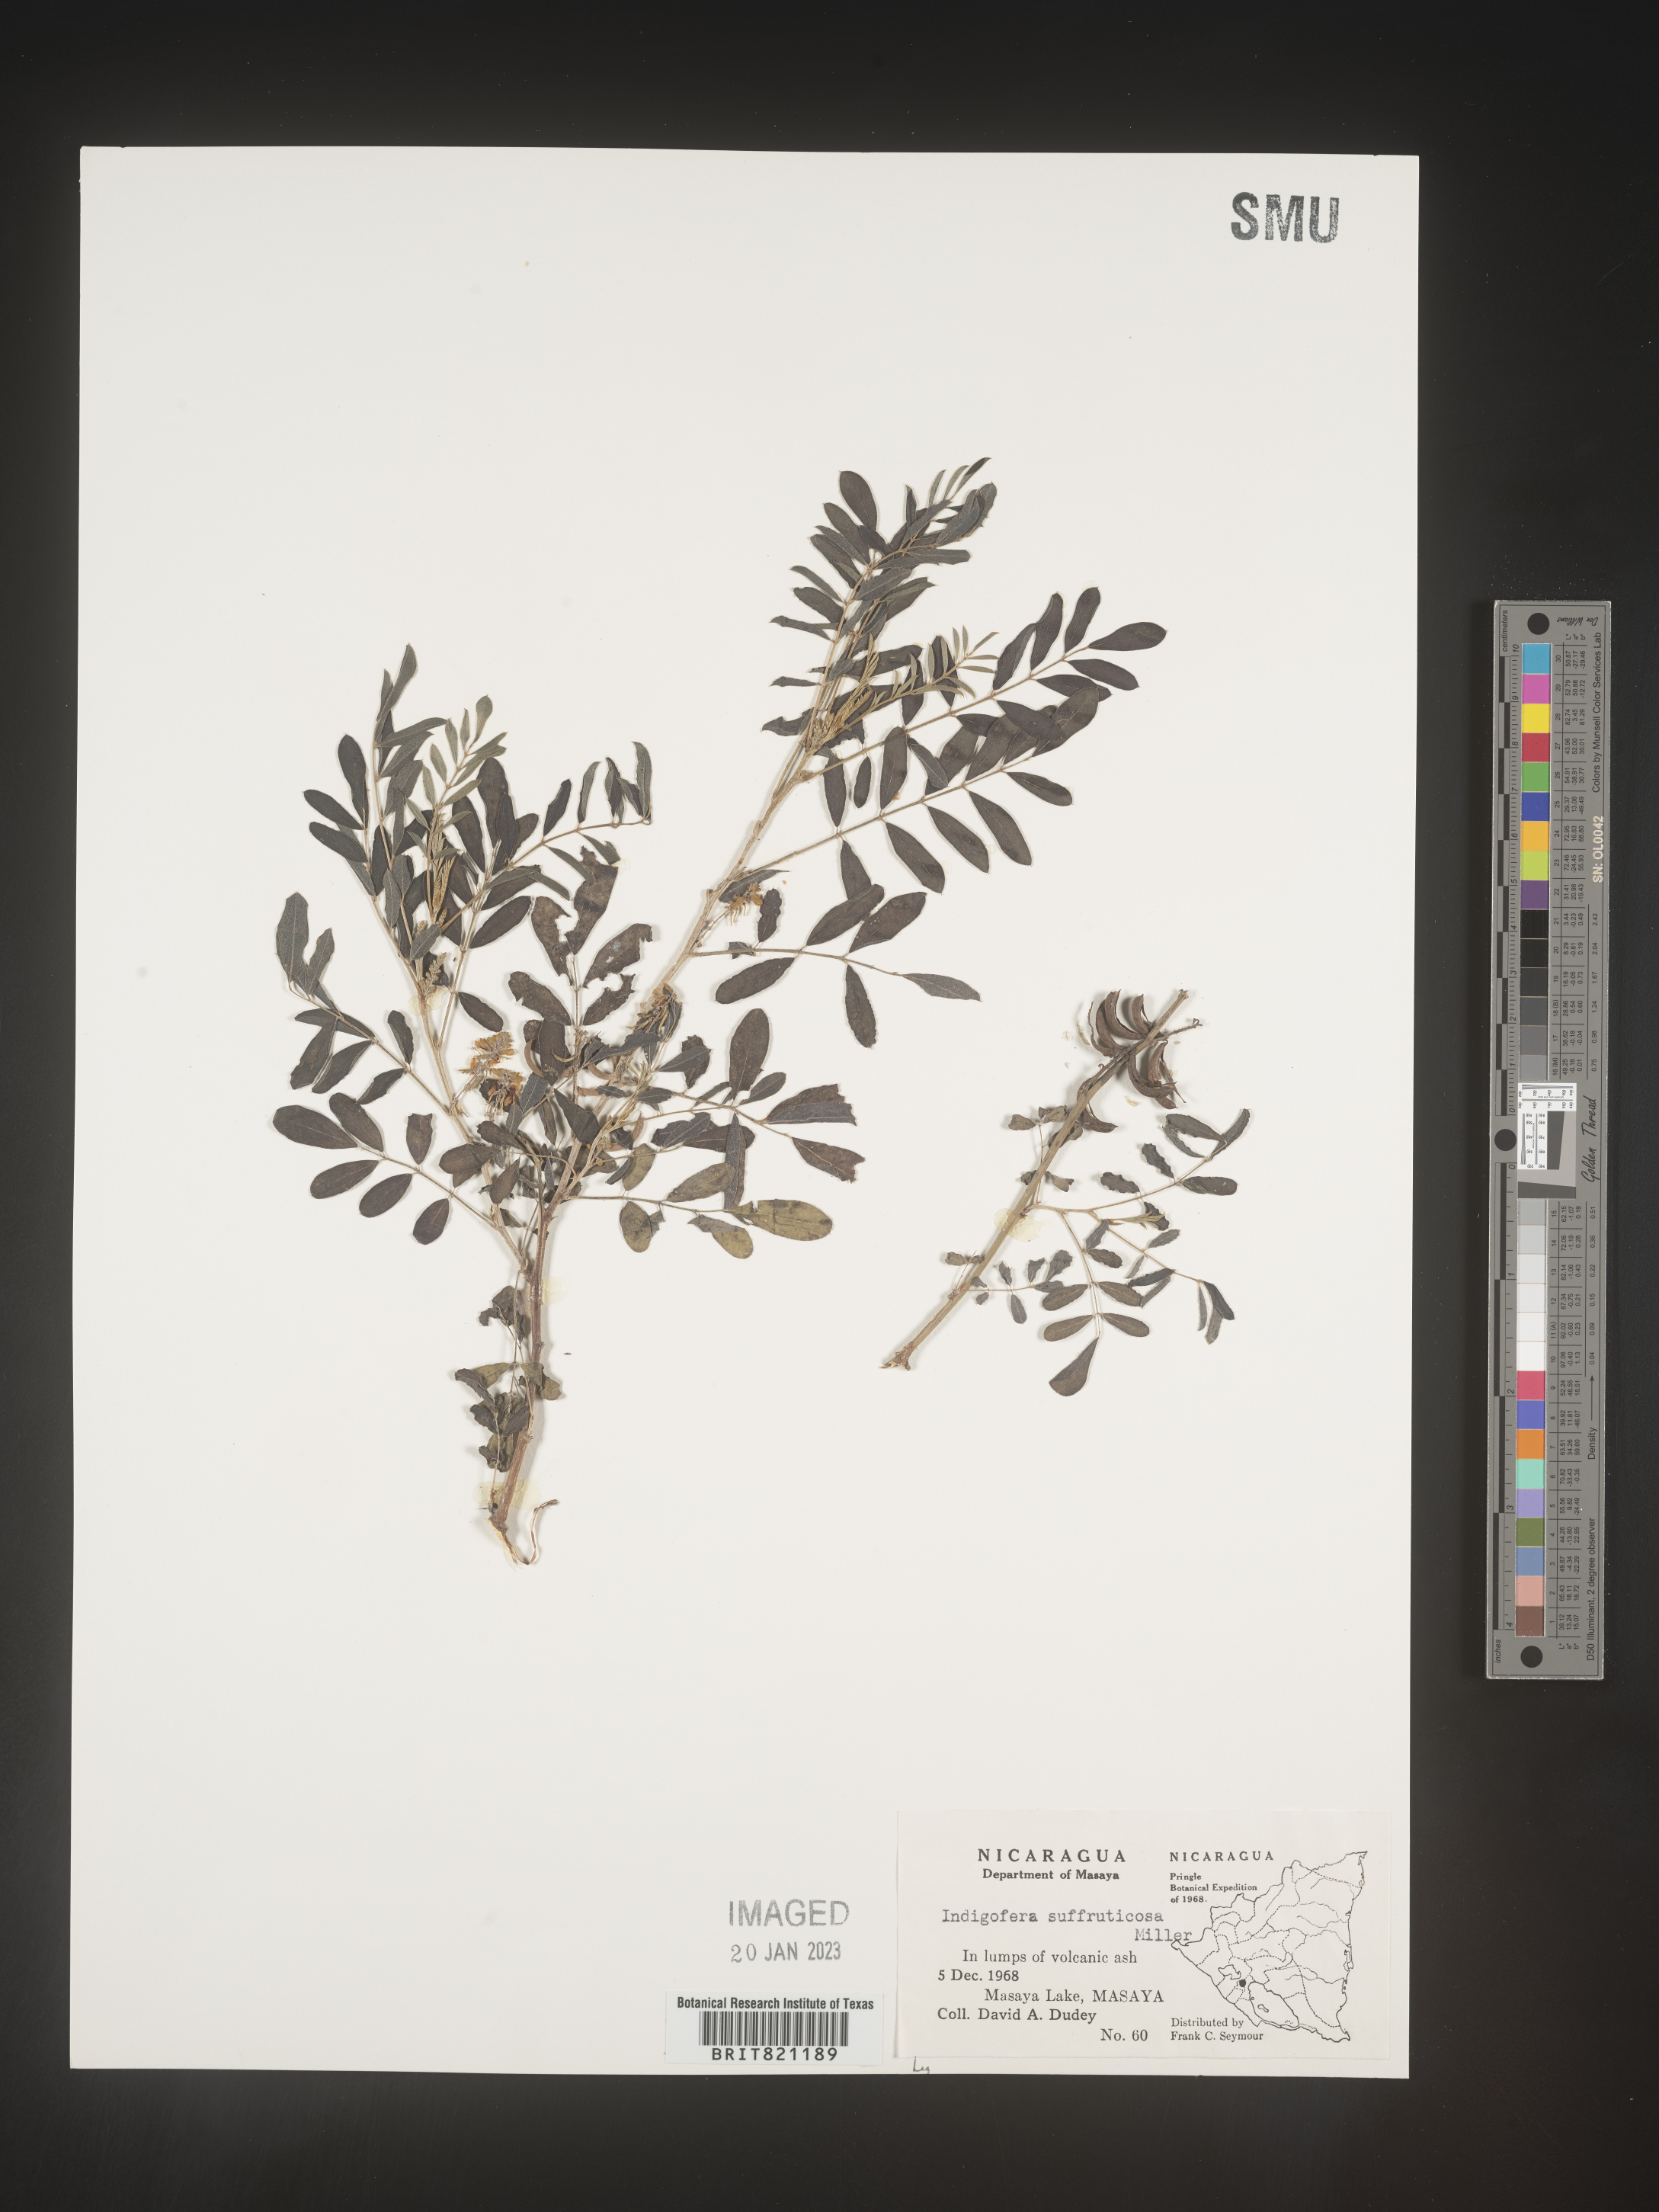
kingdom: Plantae
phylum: Tracheophyta
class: Magnoliopsida
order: Fabales
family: Fabaceae
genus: Indigofera
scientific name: Indigofera
